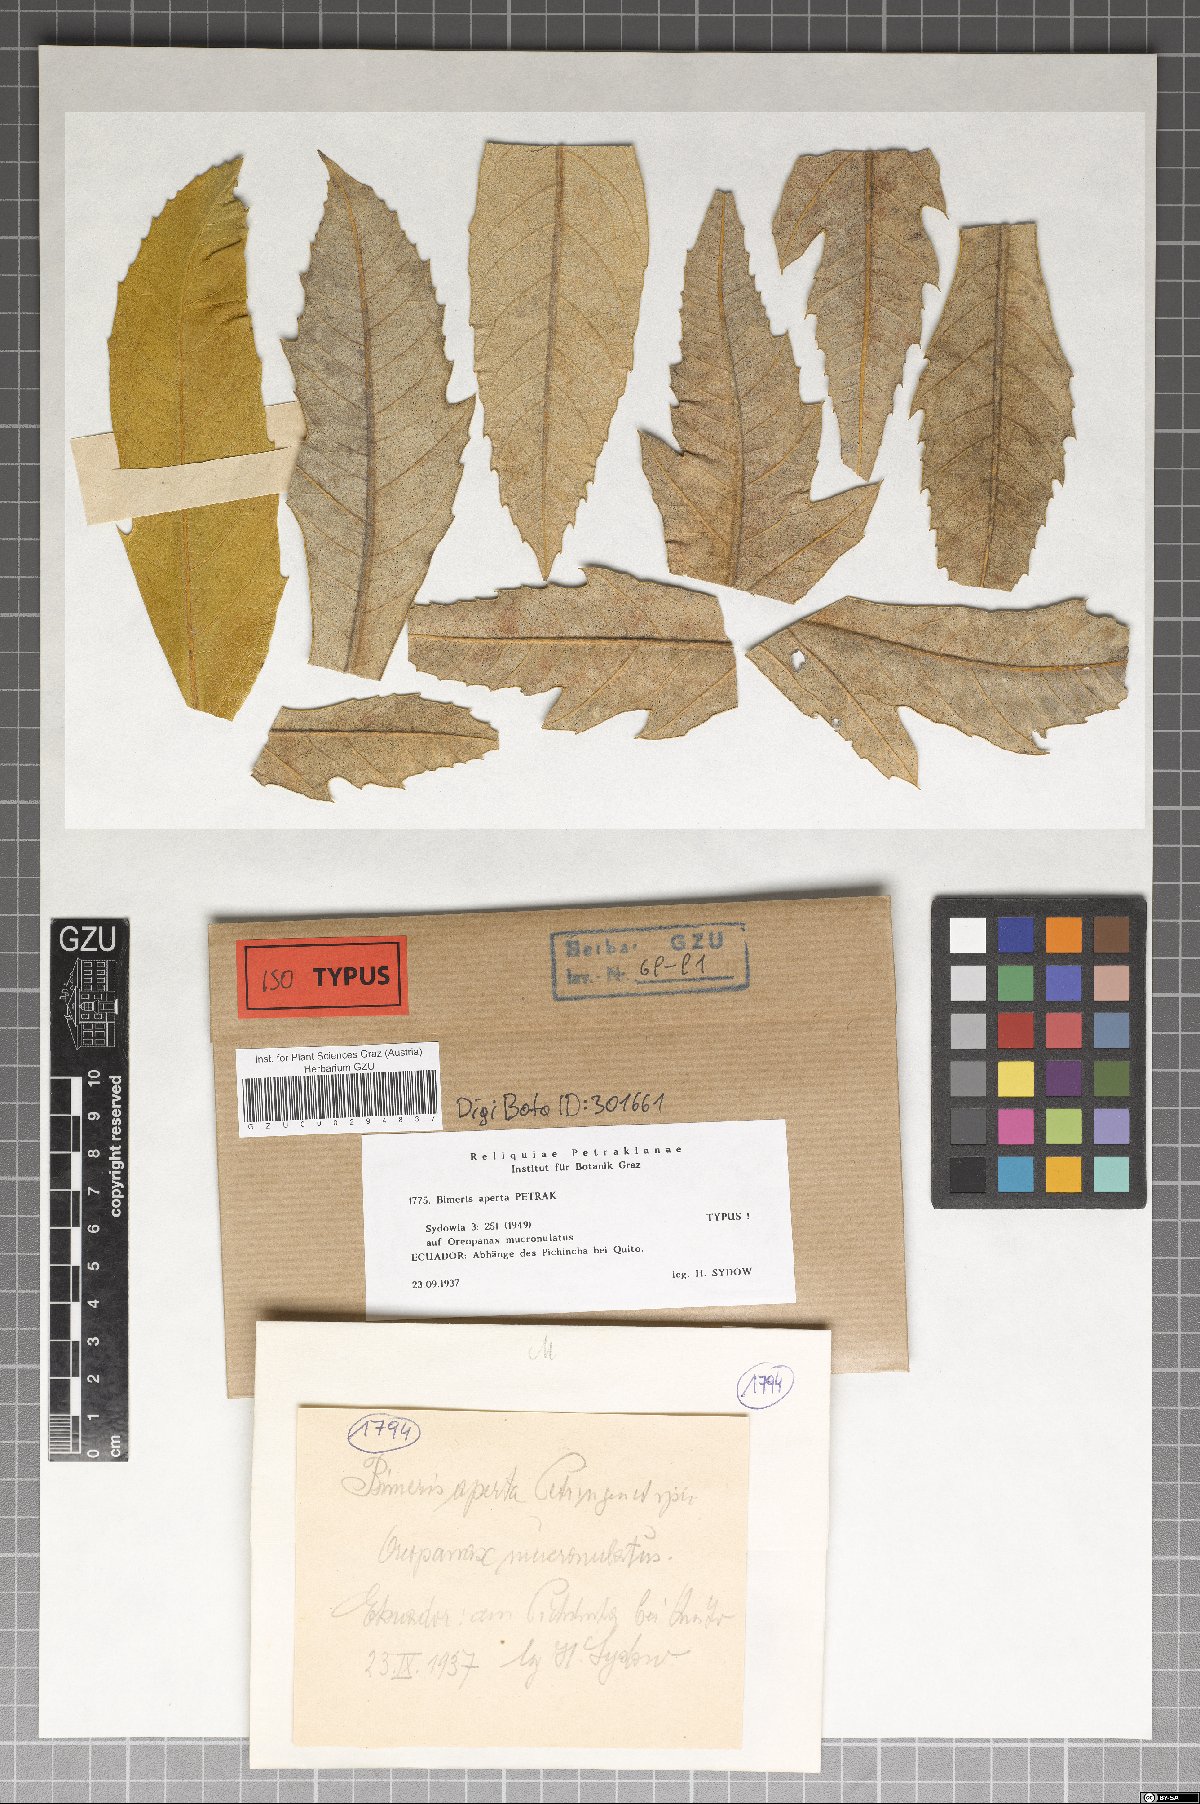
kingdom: Fungi
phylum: Ascomycota
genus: Bimeris
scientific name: Bimeris aperta
